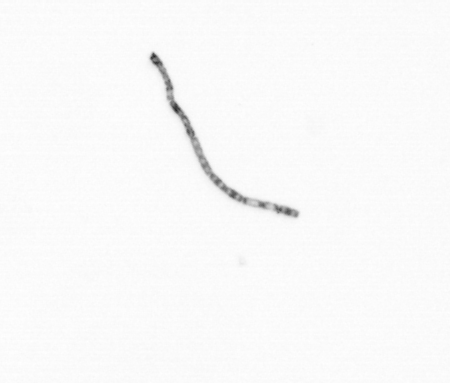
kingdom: Chromista
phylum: Ochrophyta
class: Bacillariophyceae
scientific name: Bacillariophyceae
